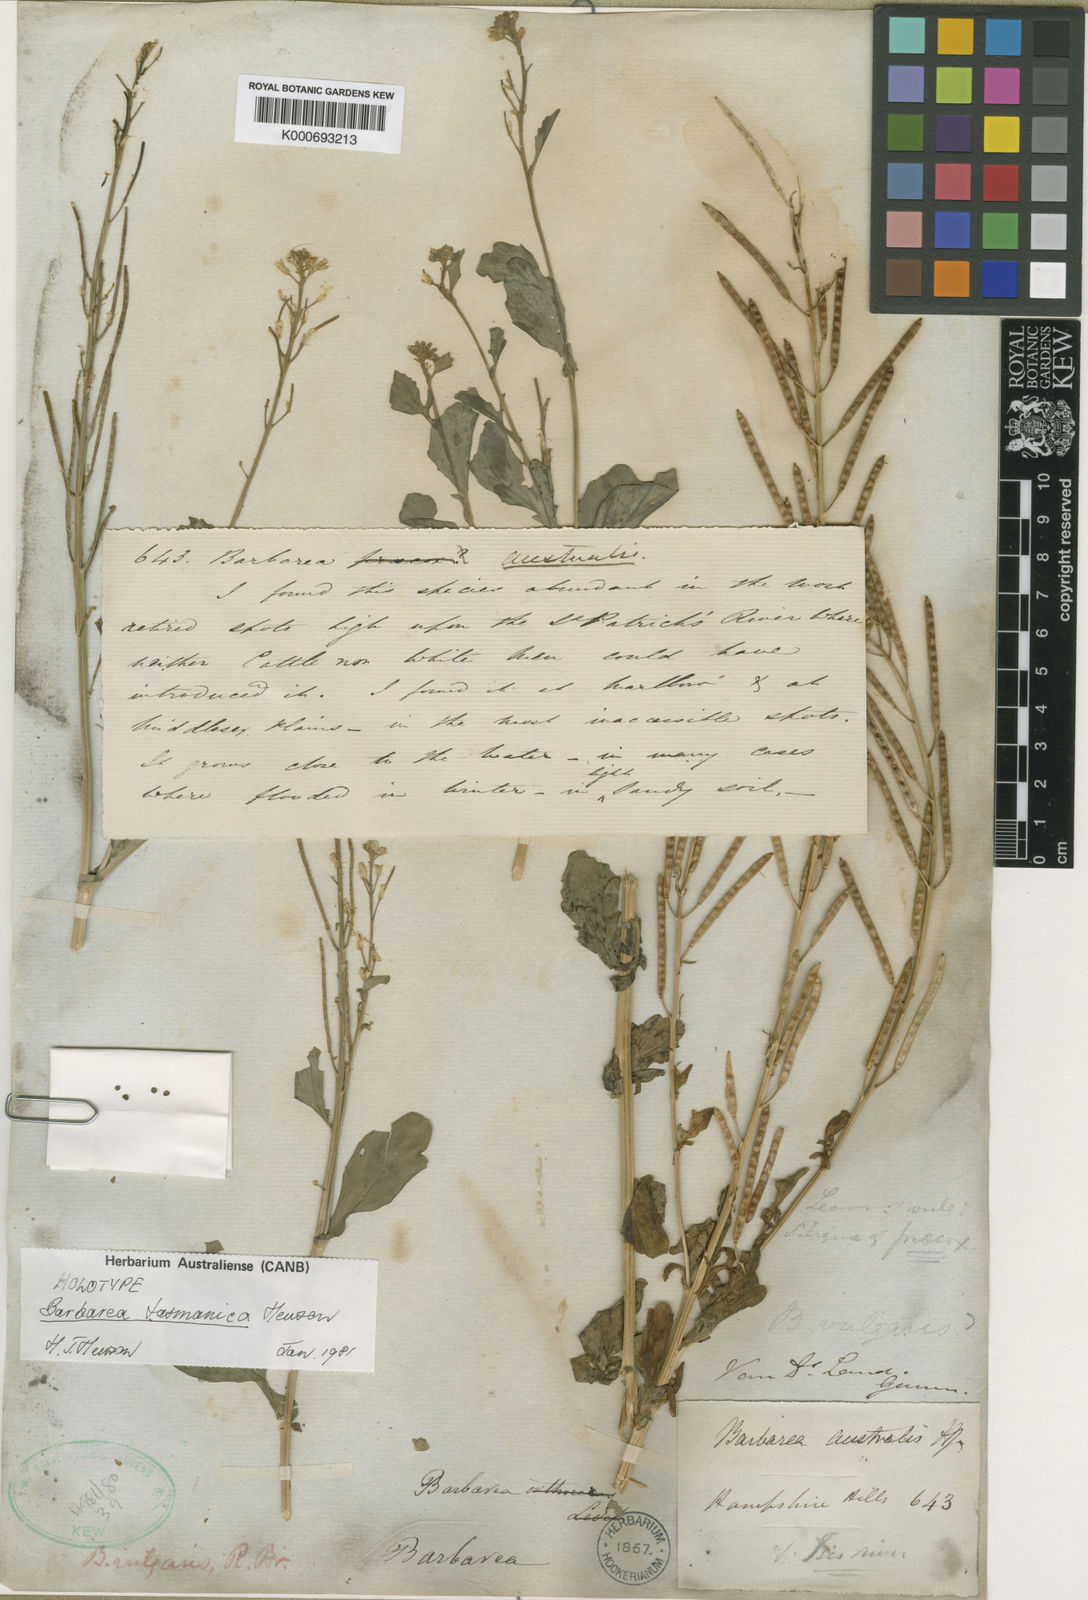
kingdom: Plantae
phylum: Tracheophyta
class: Magnoliopsida
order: Brassicales
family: Brassicaceae
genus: Barbarea
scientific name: Barbarea australis
